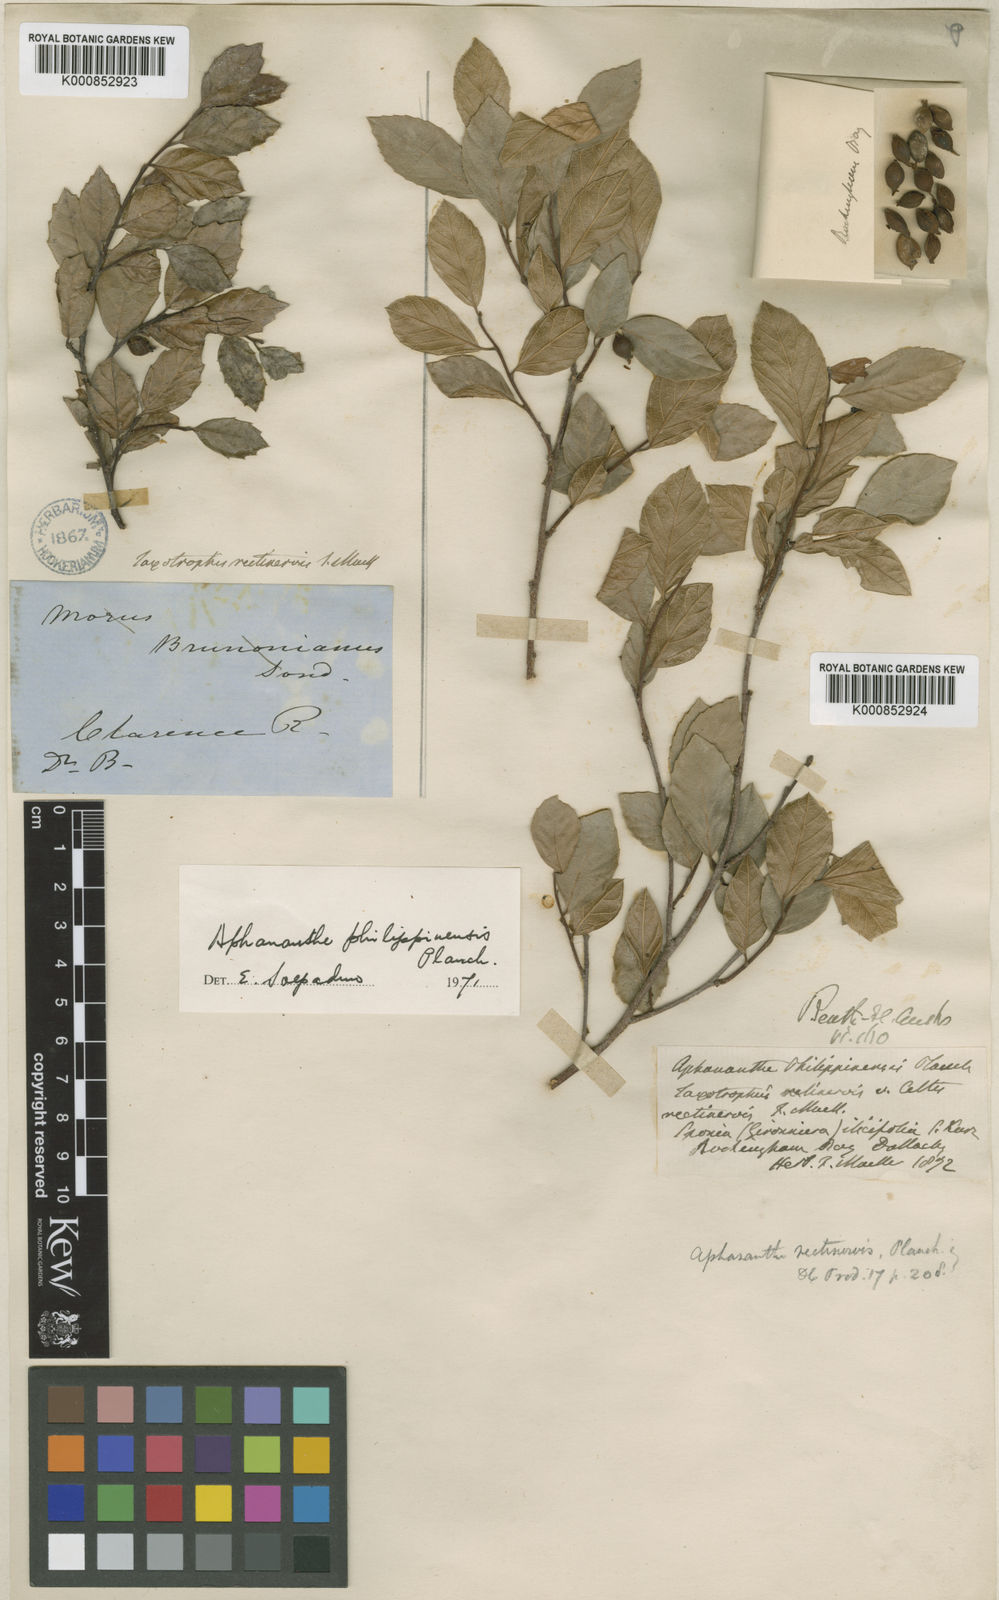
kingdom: Plantae
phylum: Tracheophyta
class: Magnoliopsida
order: Rosales
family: Cannabaceae
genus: Aphananthe
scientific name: Aphananthe philippinensis
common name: Wild holly
